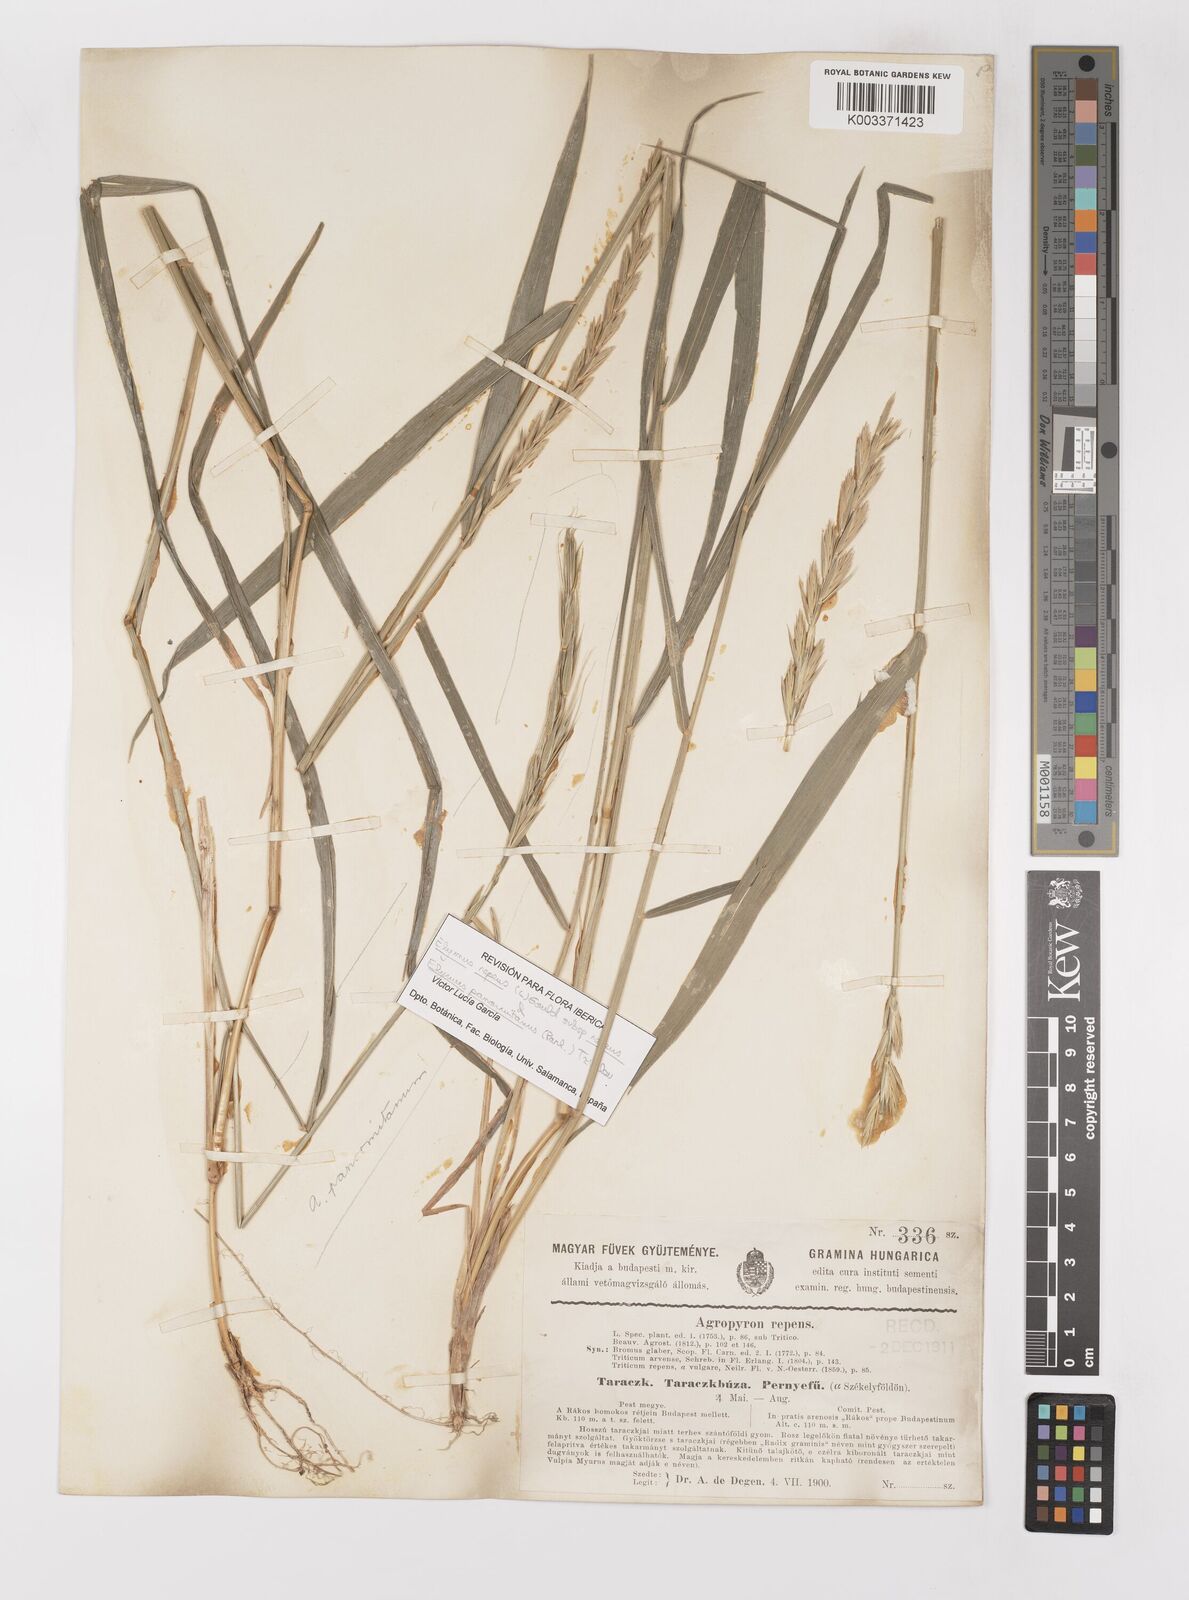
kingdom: Plantae
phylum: Tracheophyta
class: Liliopsida
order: Poales
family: Poaceae
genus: Elymus
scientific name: Elymus repens
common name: Quackgrass
